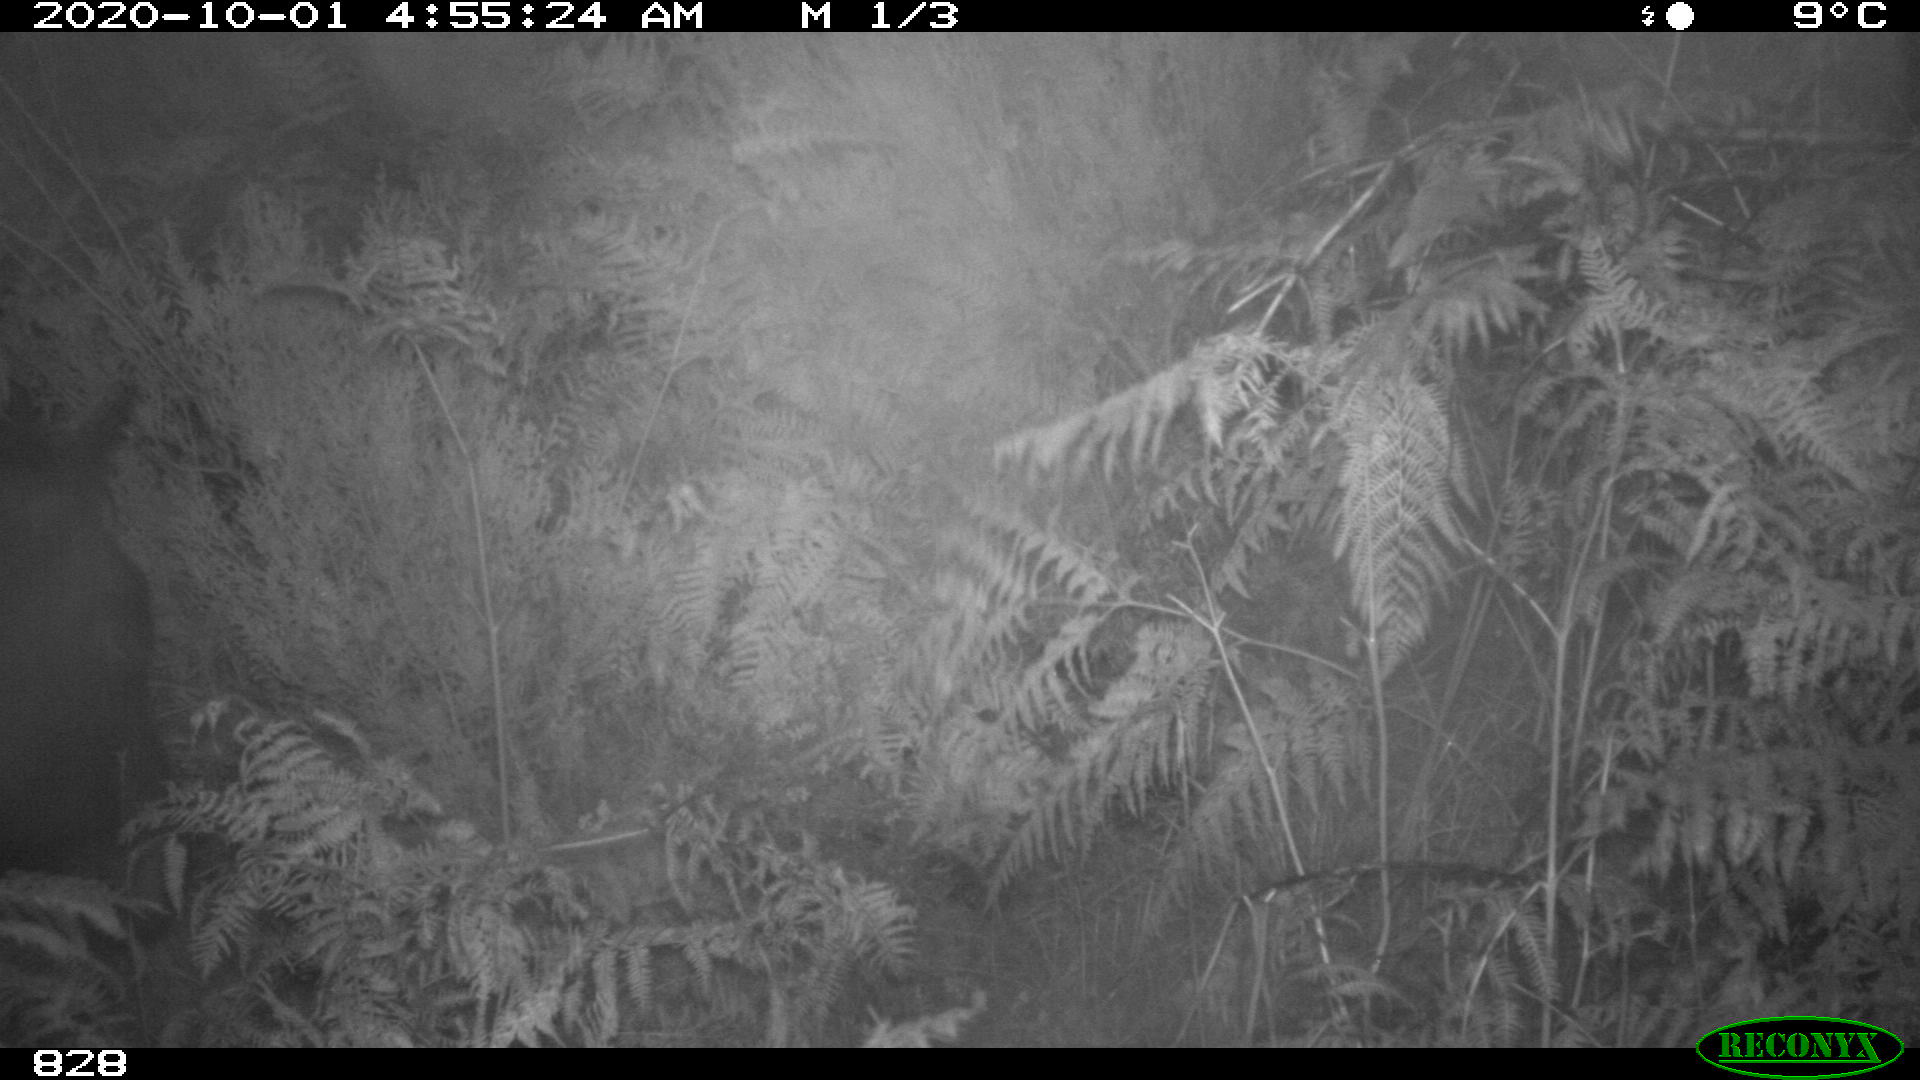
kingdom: Animalia
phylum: Chordata
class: Mammalia
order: Perissodactyla
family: Equidae
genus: Equus
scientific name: Equus caballus
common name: Horse
